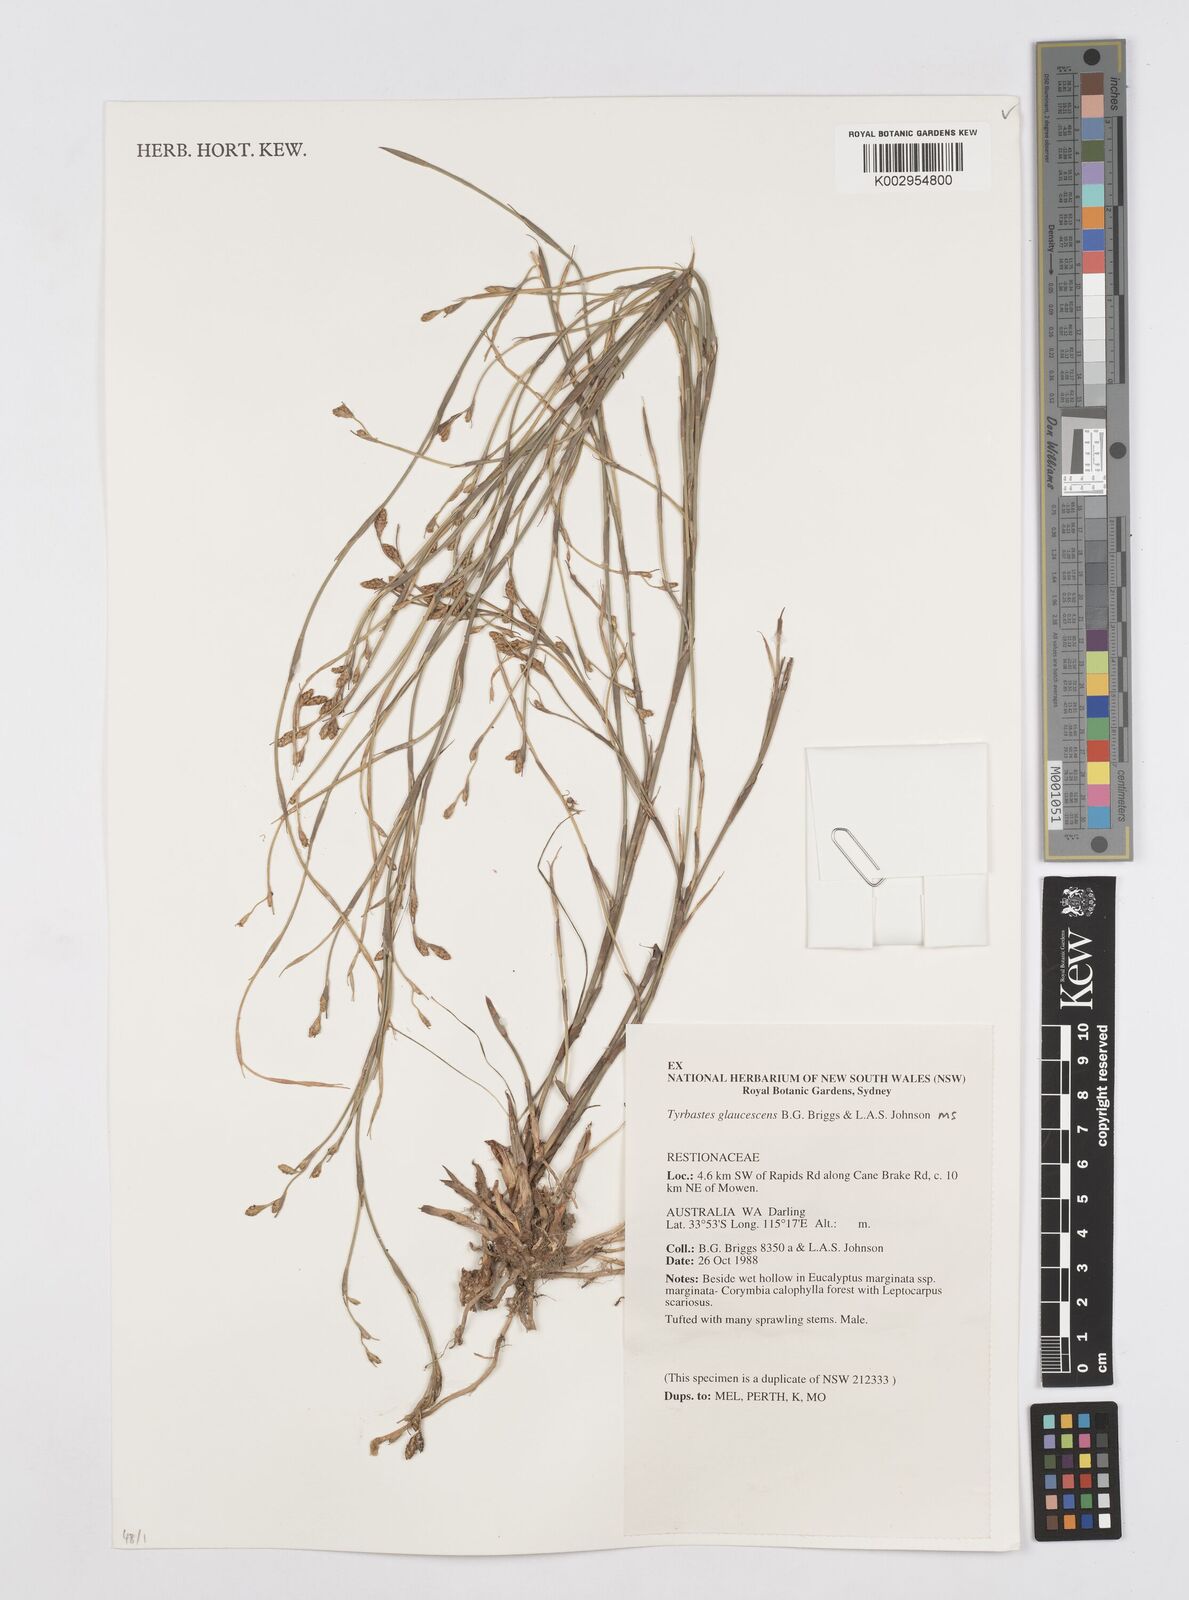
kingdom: Plantae
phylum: Tracheophyta
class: Liliopsida
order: Poales
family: Restionaceae
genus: Tyrbastes
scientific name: Tyrbastes glaucescens
